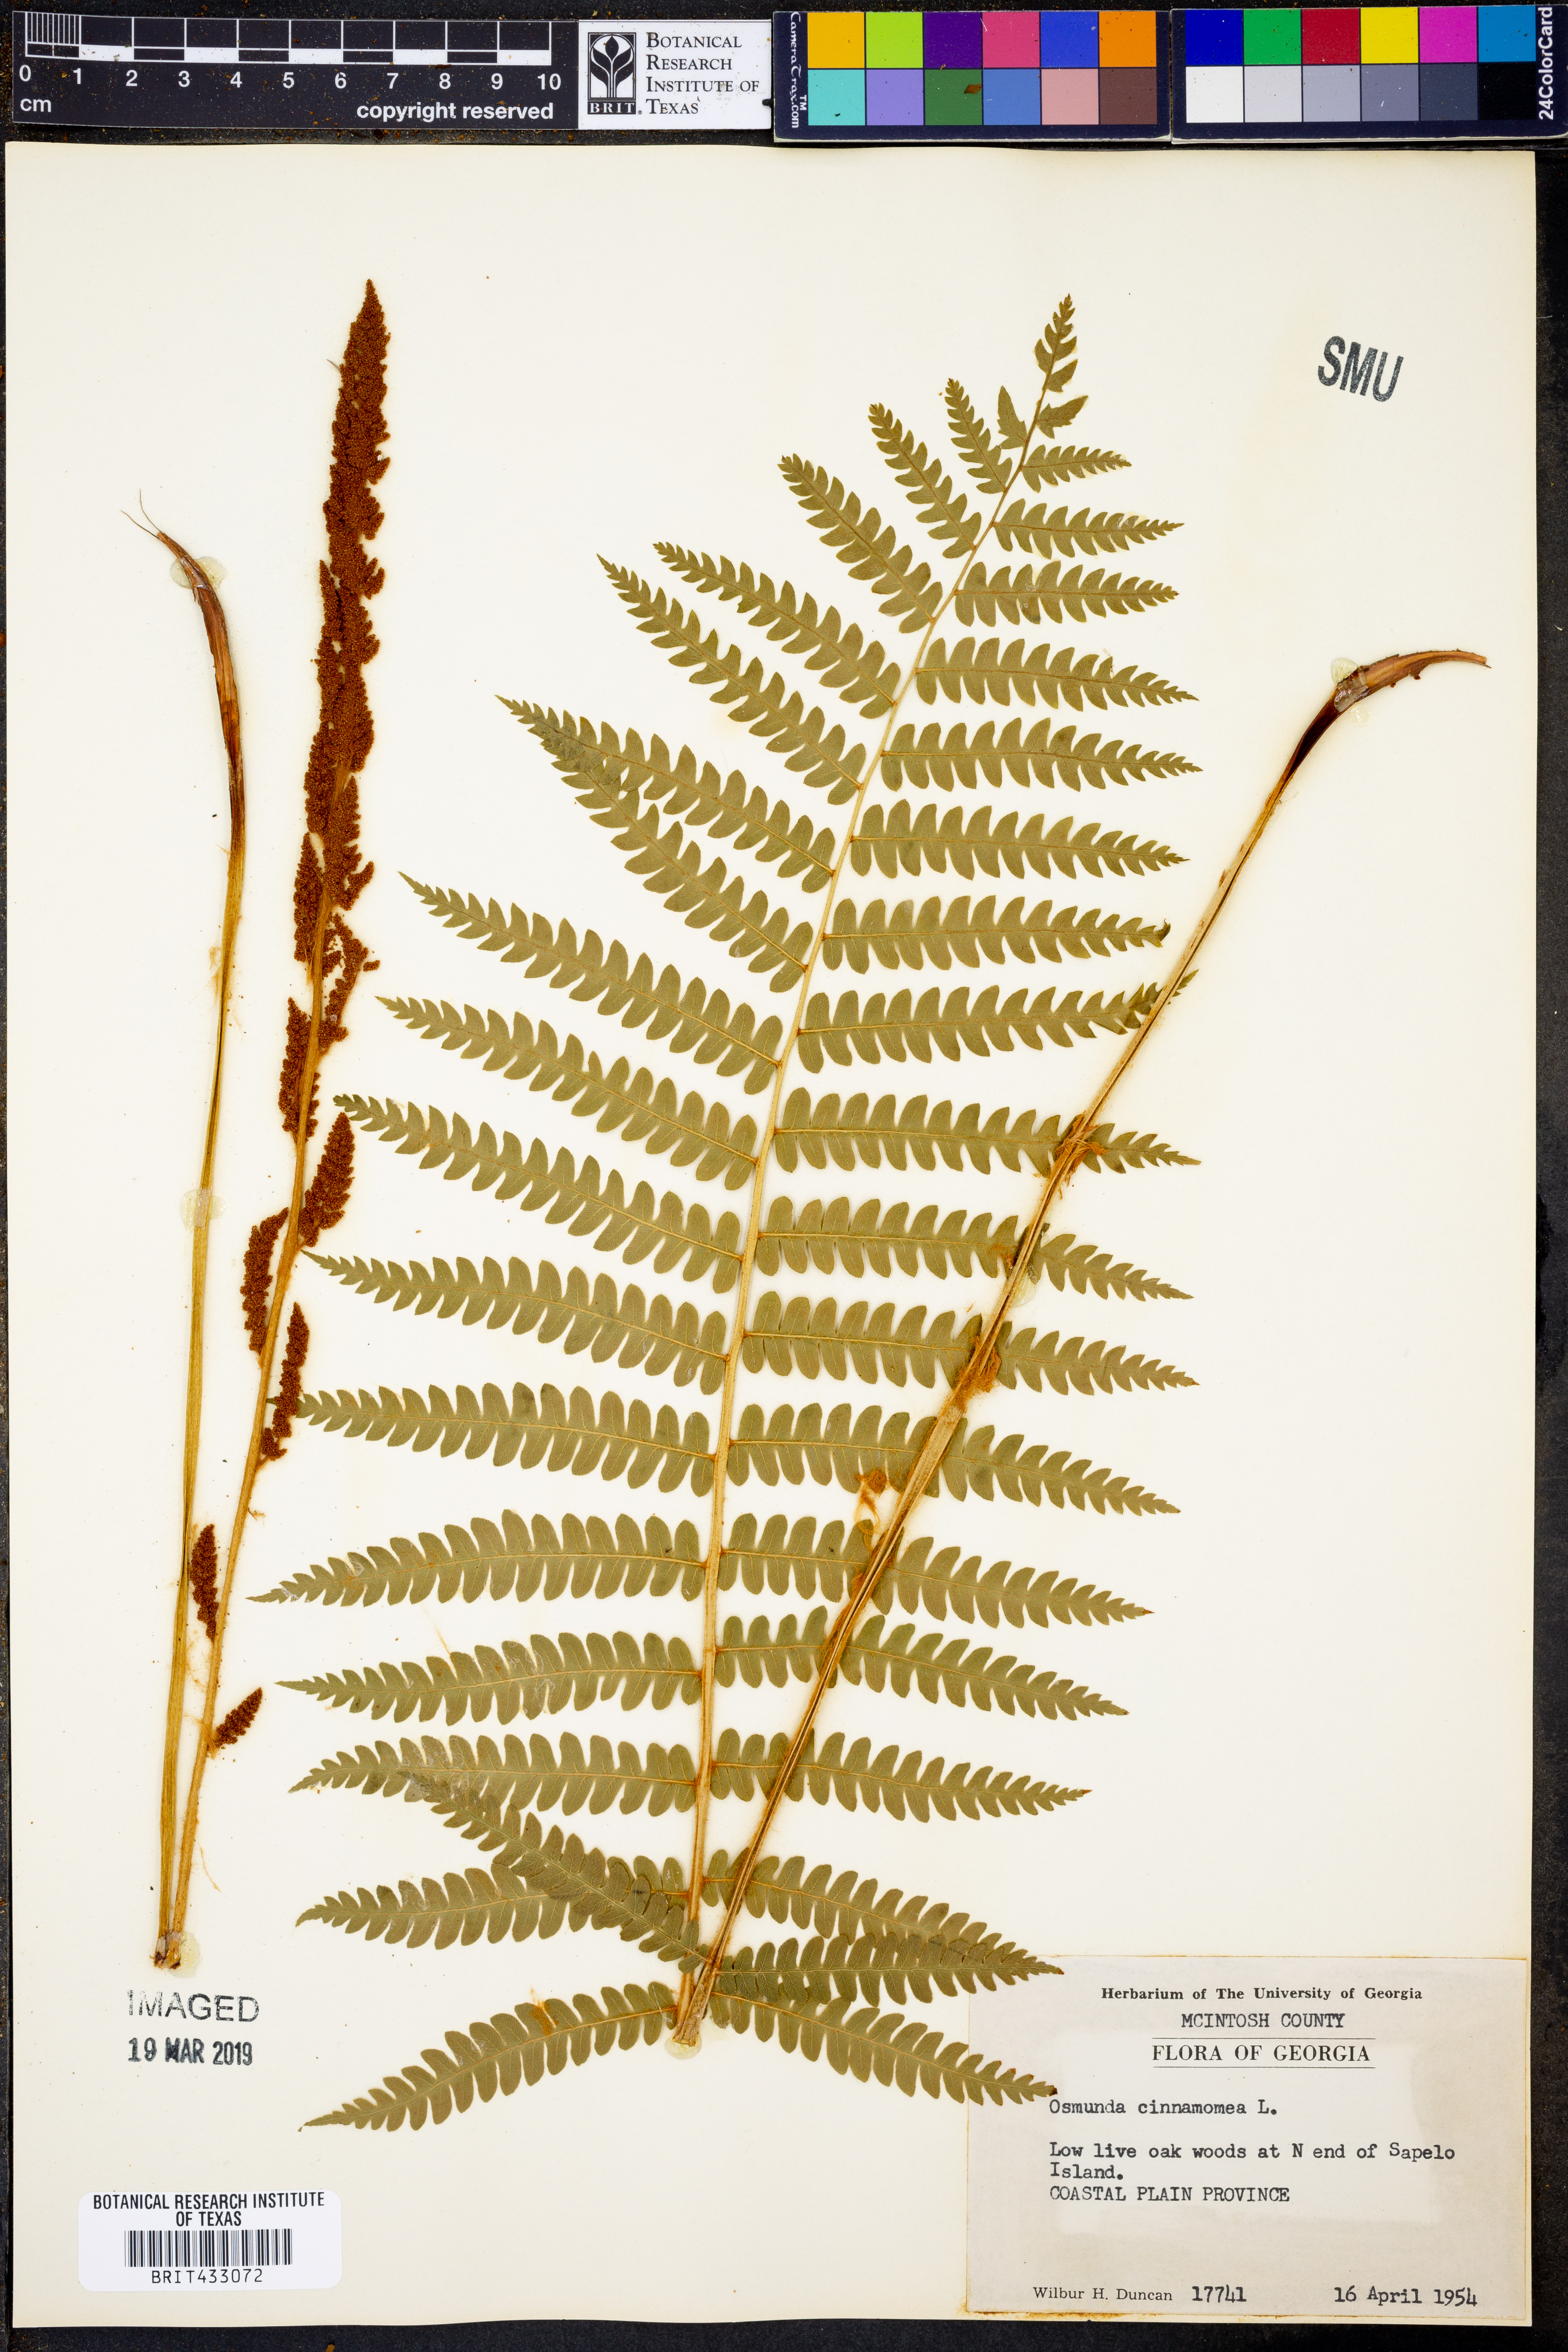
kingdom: Plantae
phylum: Tracheophyta
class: Polypodiopsida
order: Osmundales
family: Osmundaceae
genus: Osmundastrum
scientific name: Osmundastrum cinnamomeum
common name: Cinnamon fern
